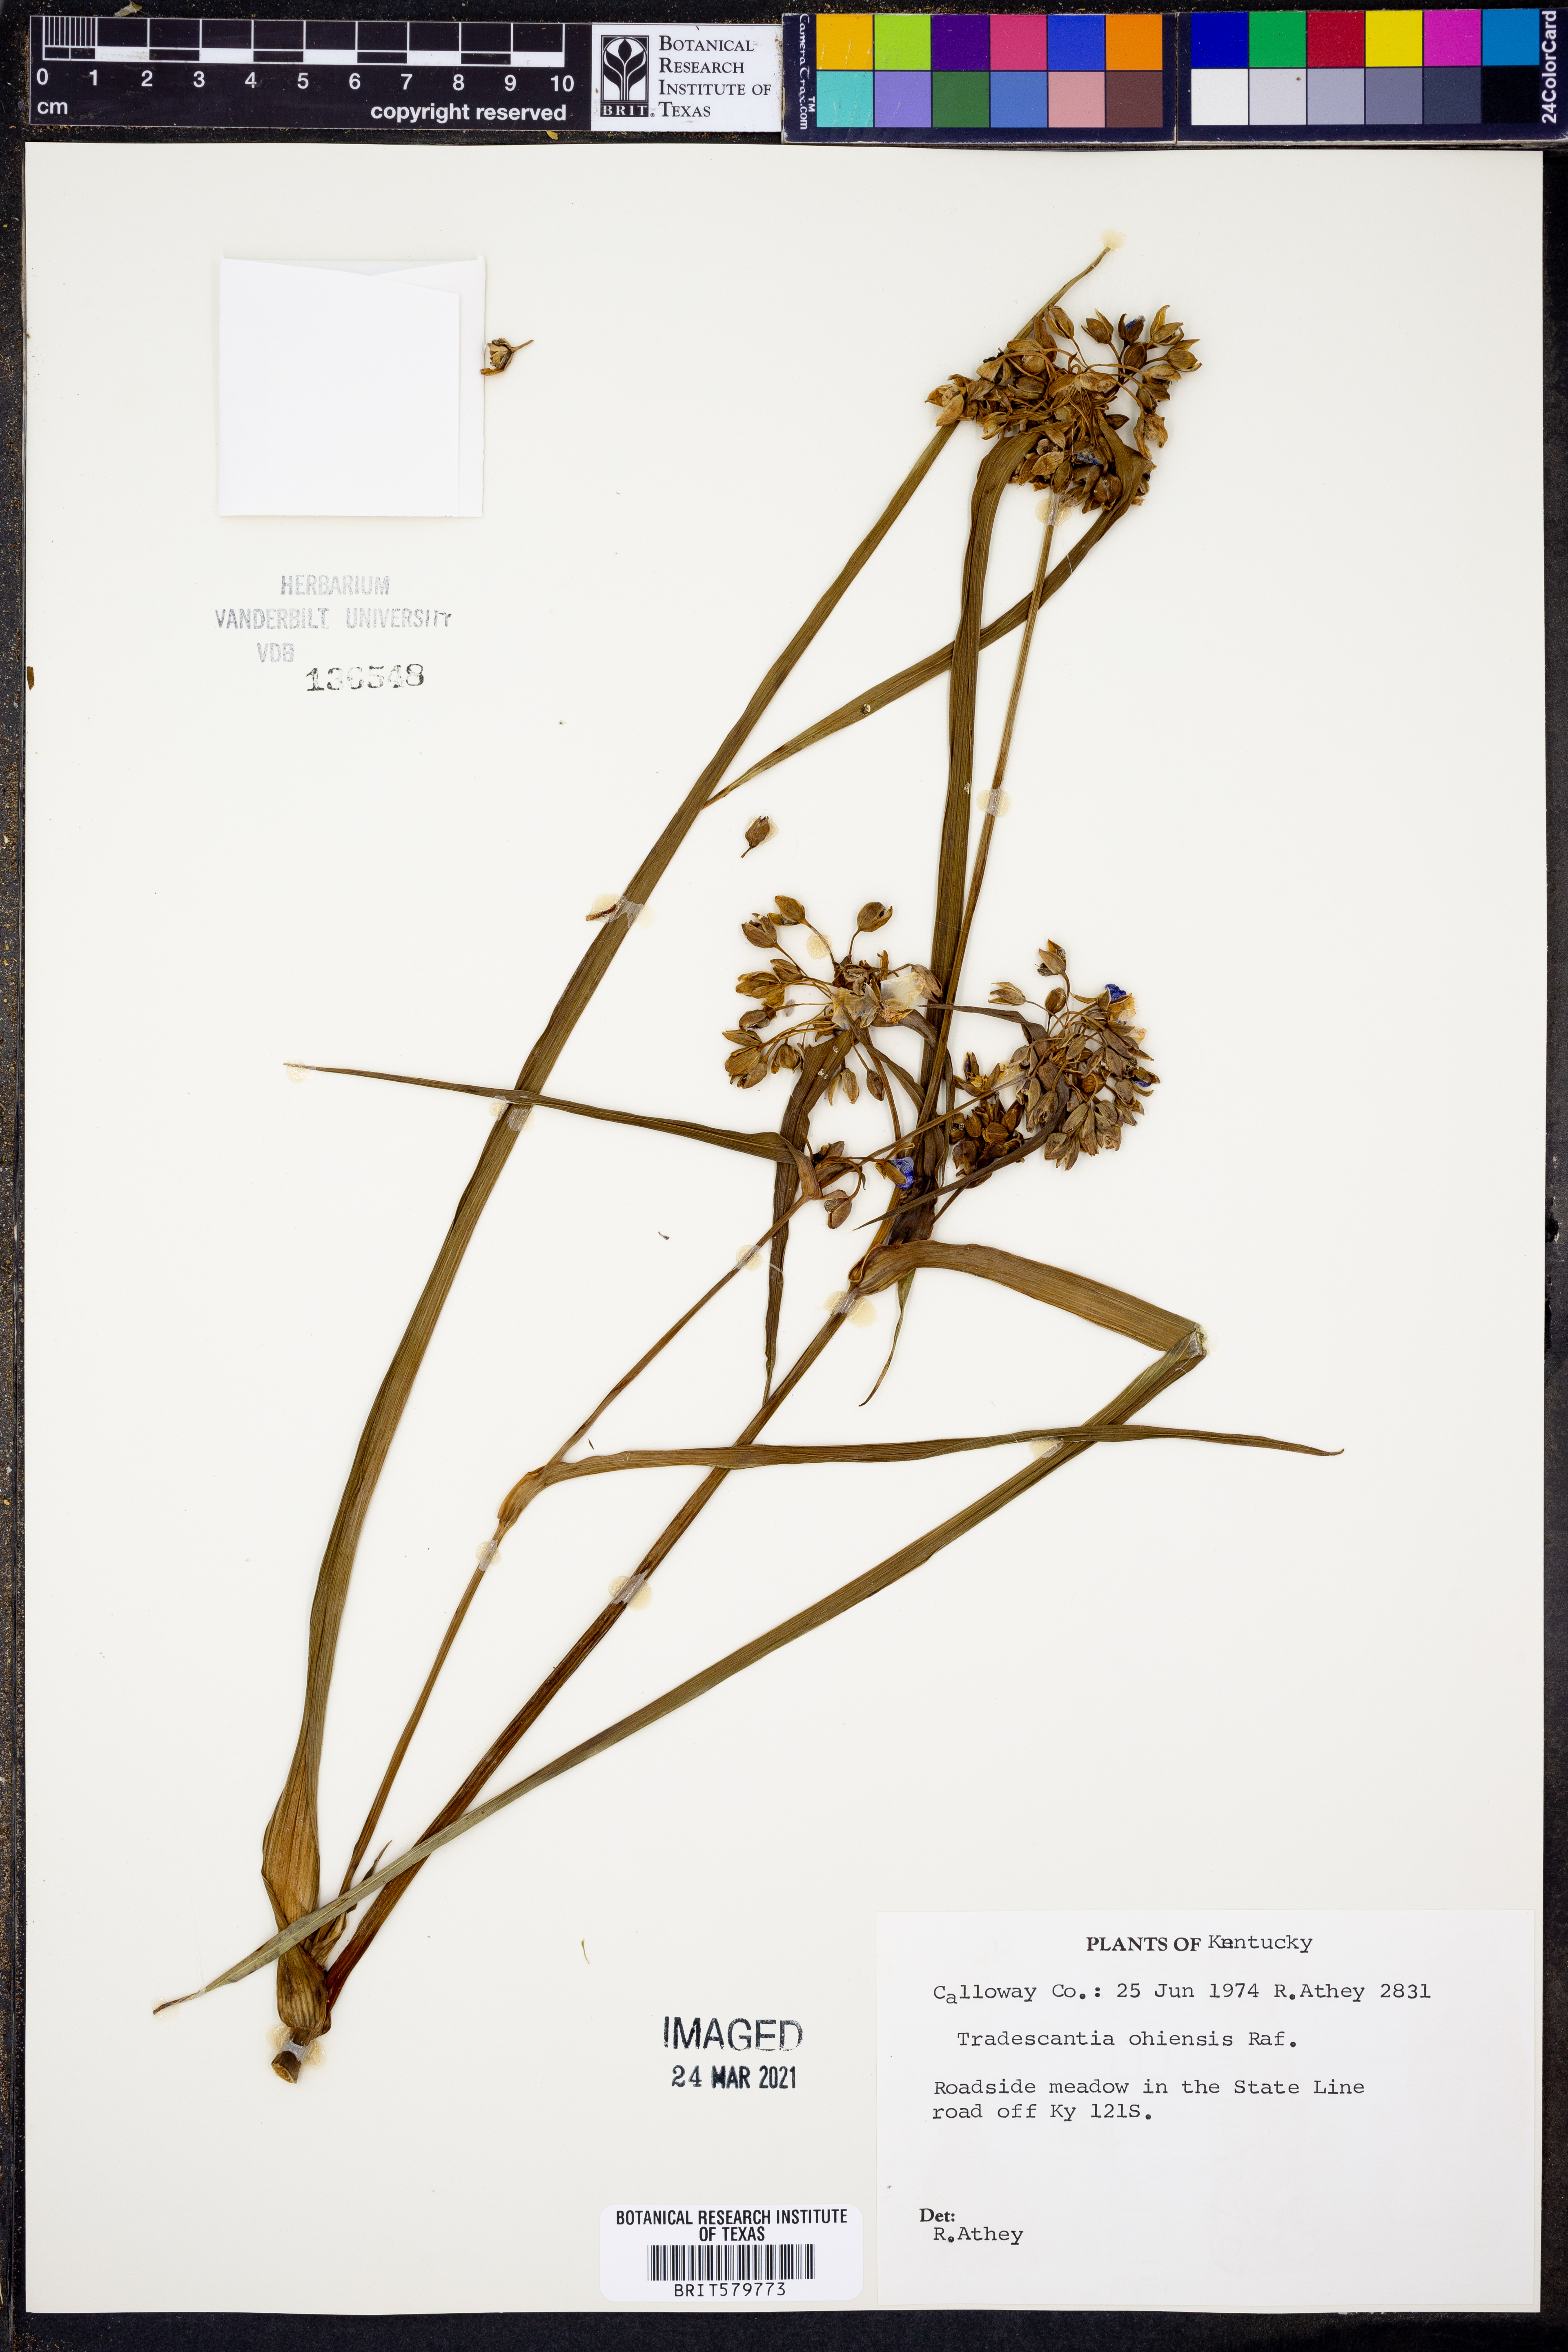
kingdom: Plantae
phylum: Tracheophyta
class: Liliopsida
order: Commelinales
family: Commelinaceae
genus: Tradescantia
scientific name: Tradescantia ohiensis
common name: Ohio spiderwort
